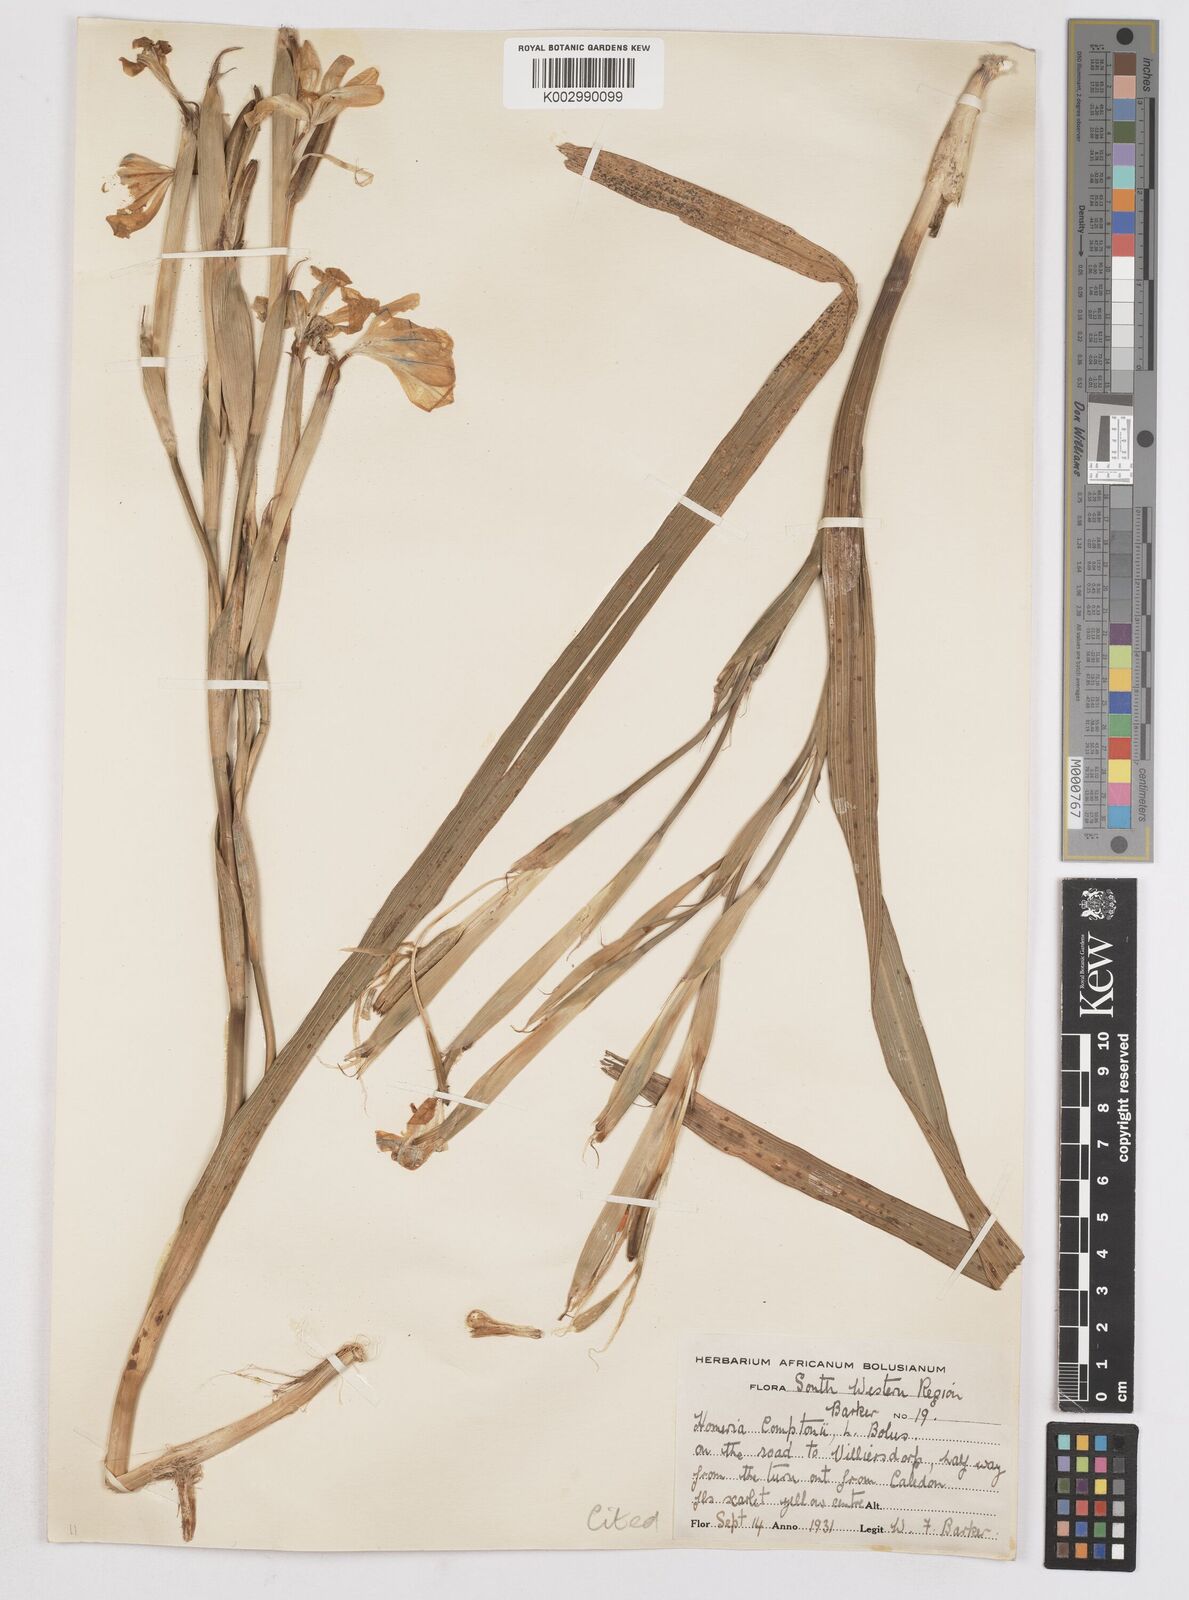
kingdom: Plantae
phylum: Tracheophyta
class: Liliopsida
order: Asparagales
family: Iridaceae
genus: Moraea
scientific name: Moraea comptonii
